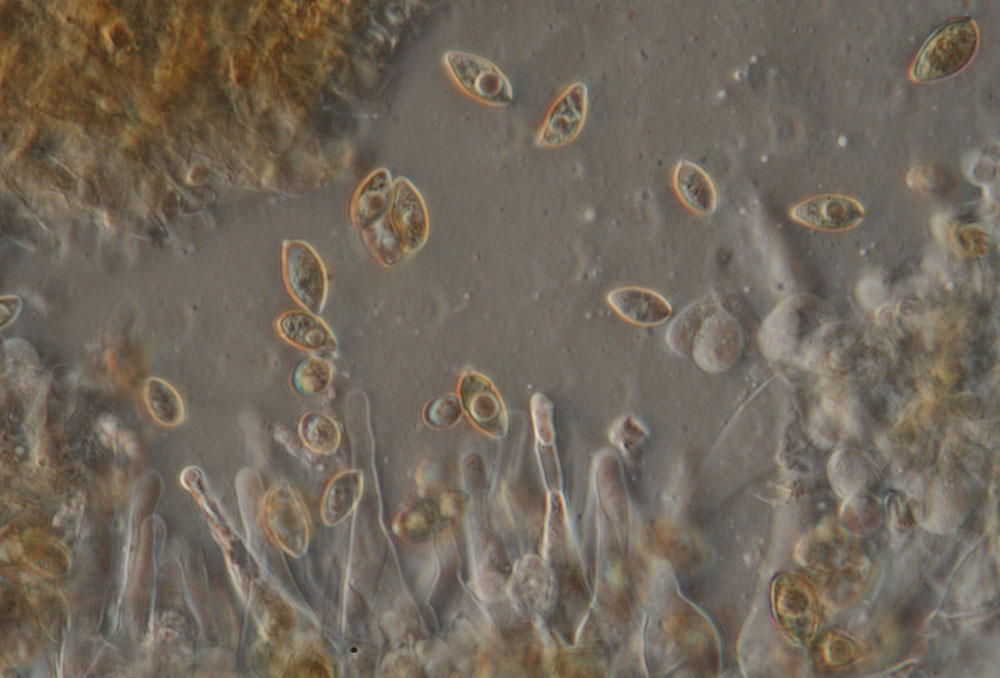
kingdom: Fungi
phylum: Basidiomycota
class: Agaricomycetes
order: Agaricales
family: Hymenogastraceae
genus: Galerina
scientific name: Galerina atkinsoniana
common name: Hairy bell
